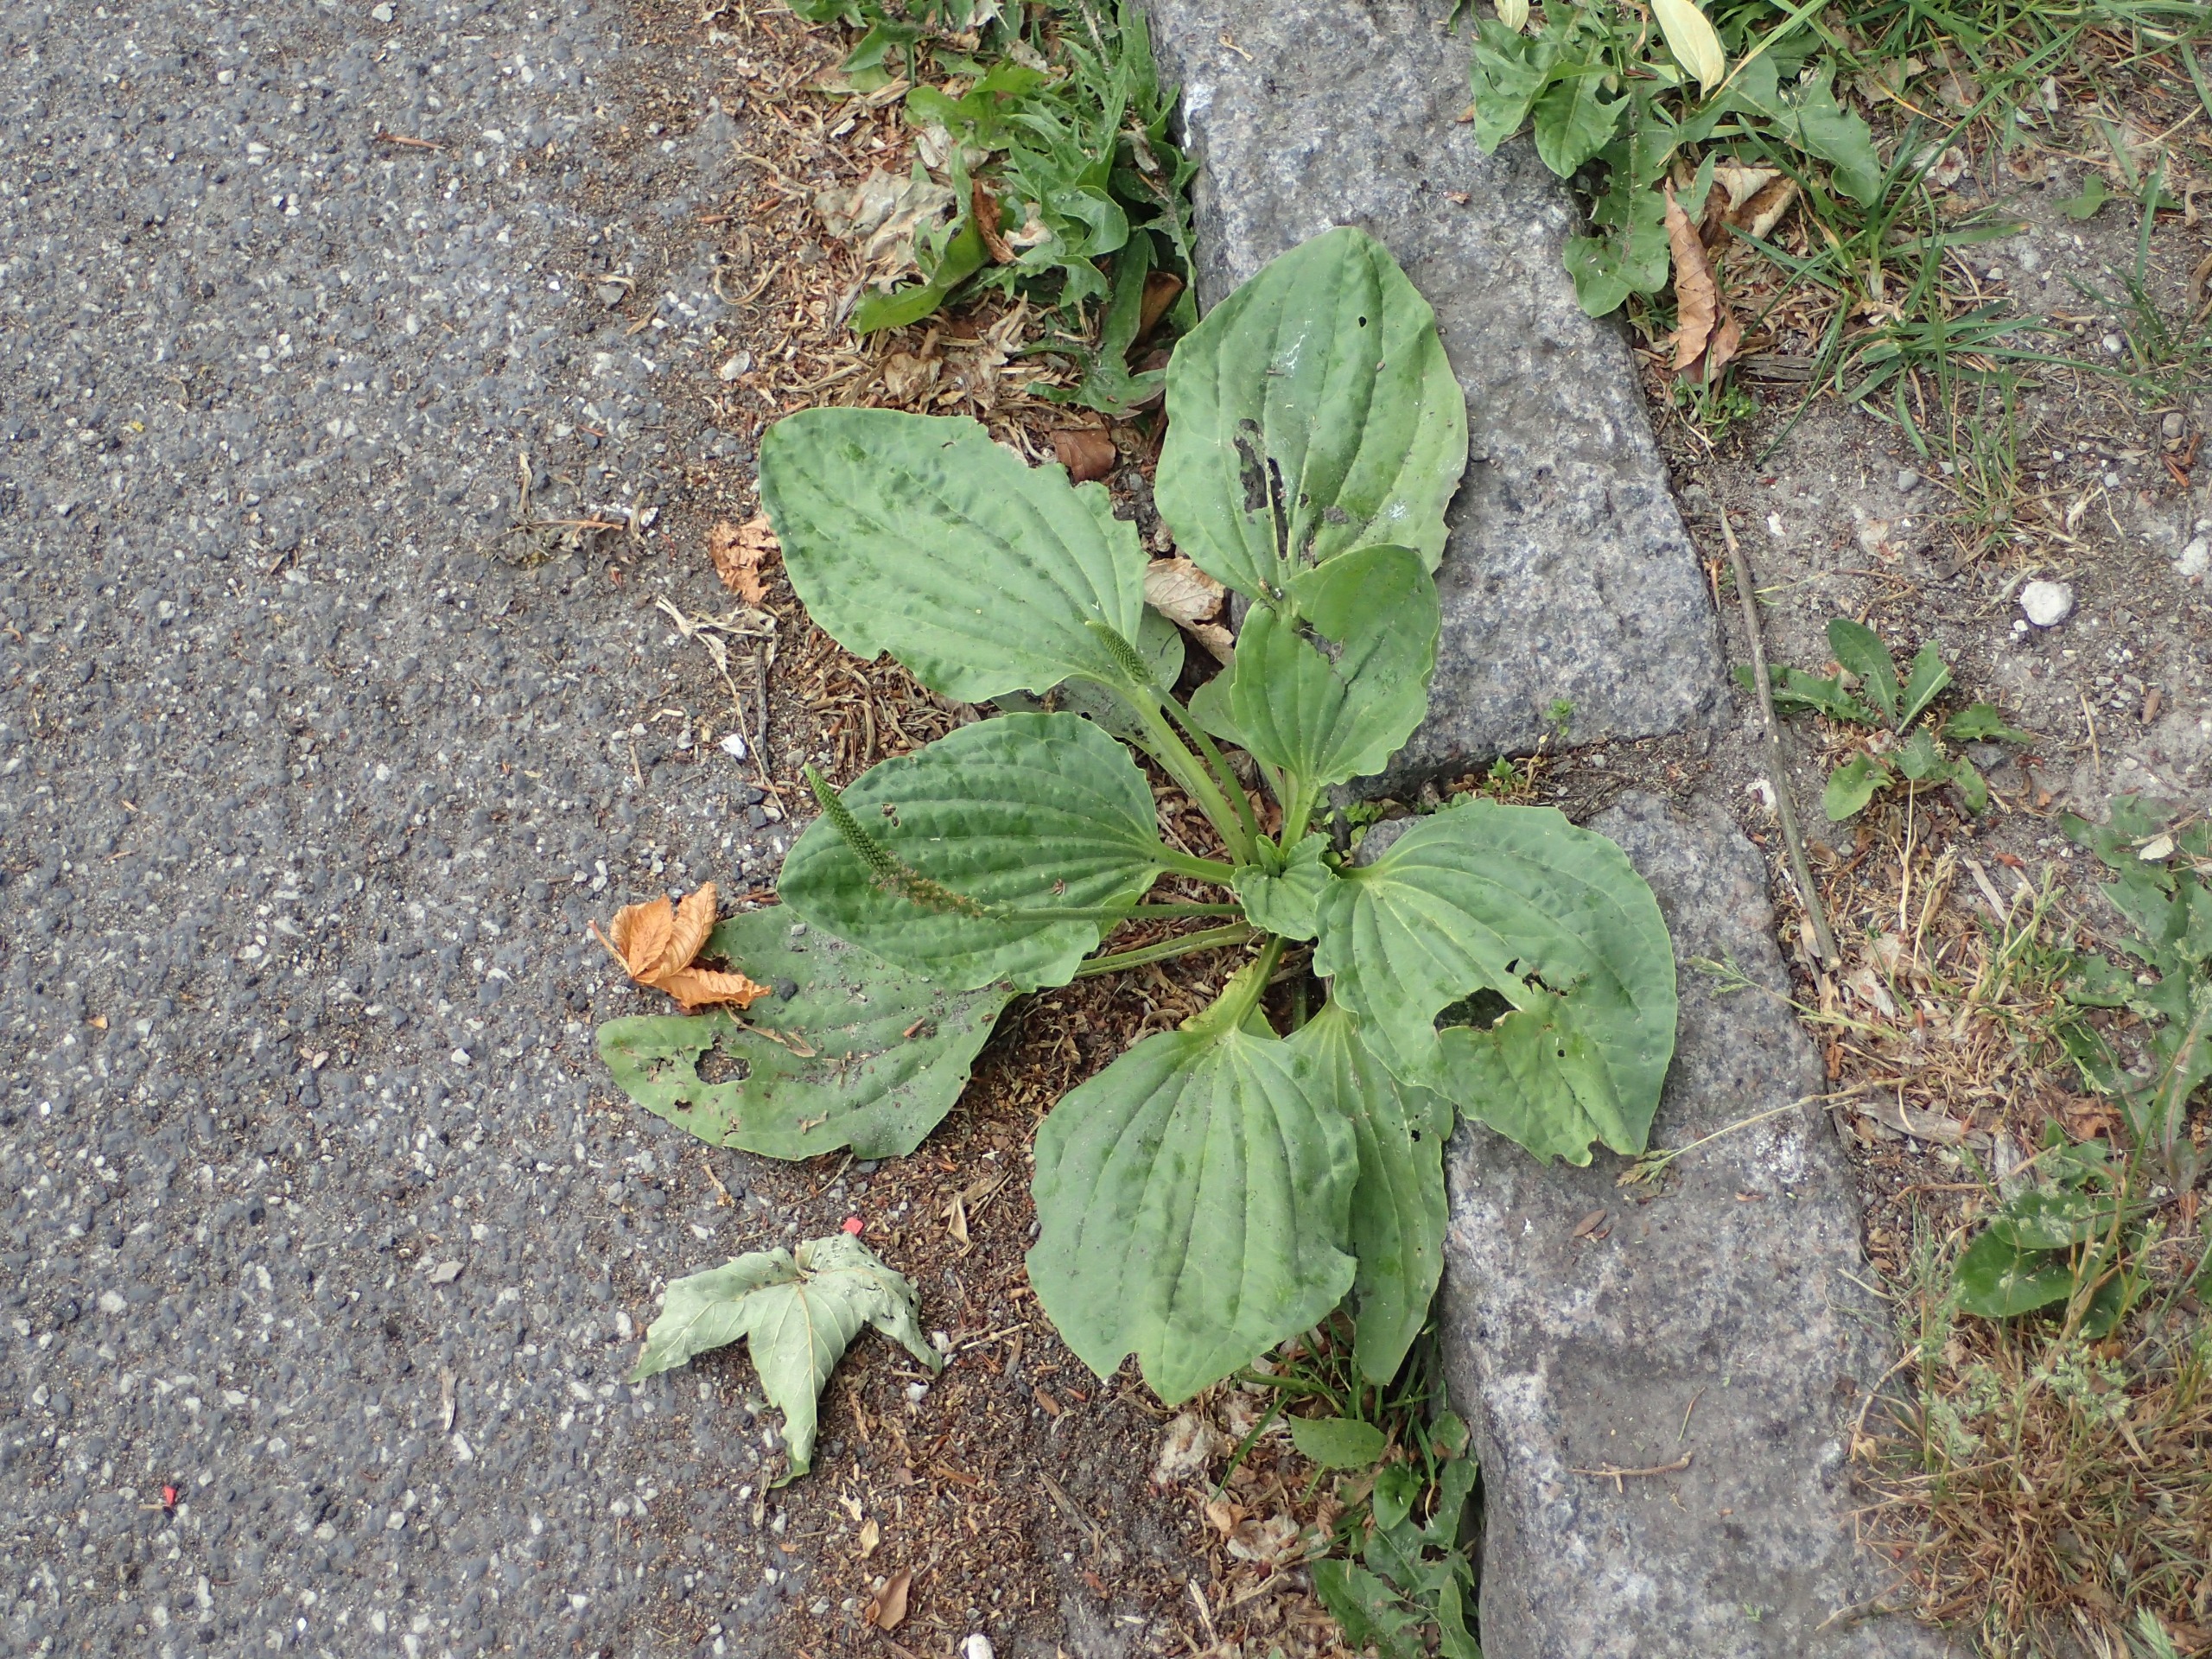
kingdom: Plantae
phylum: Tracheophyta
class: Magnoliopsida
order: Lamiales
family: Plantaginaceae
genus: Plantago
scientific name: Plantago major
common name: Glat vejbred
